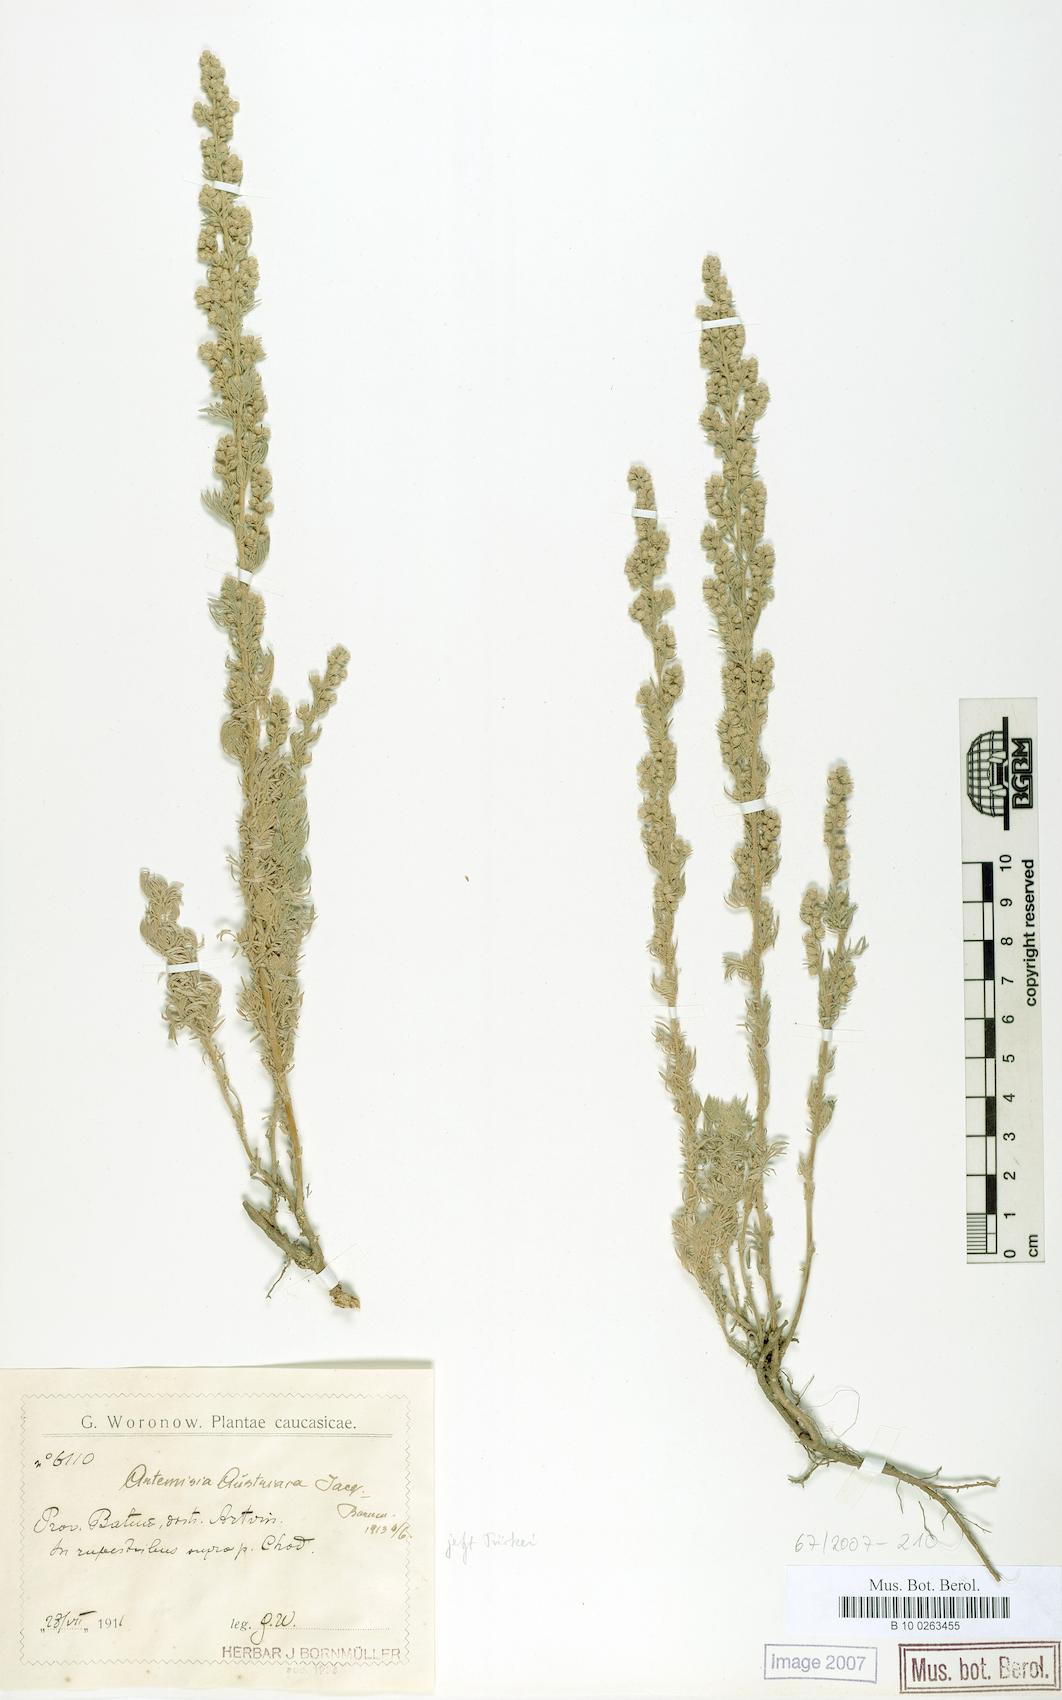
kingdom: Plantae
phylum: Tracheophyta
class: Magnoliopsida
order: Asterales
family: Asteraceae
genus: Artemisia
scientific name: Artemisia austriaca
